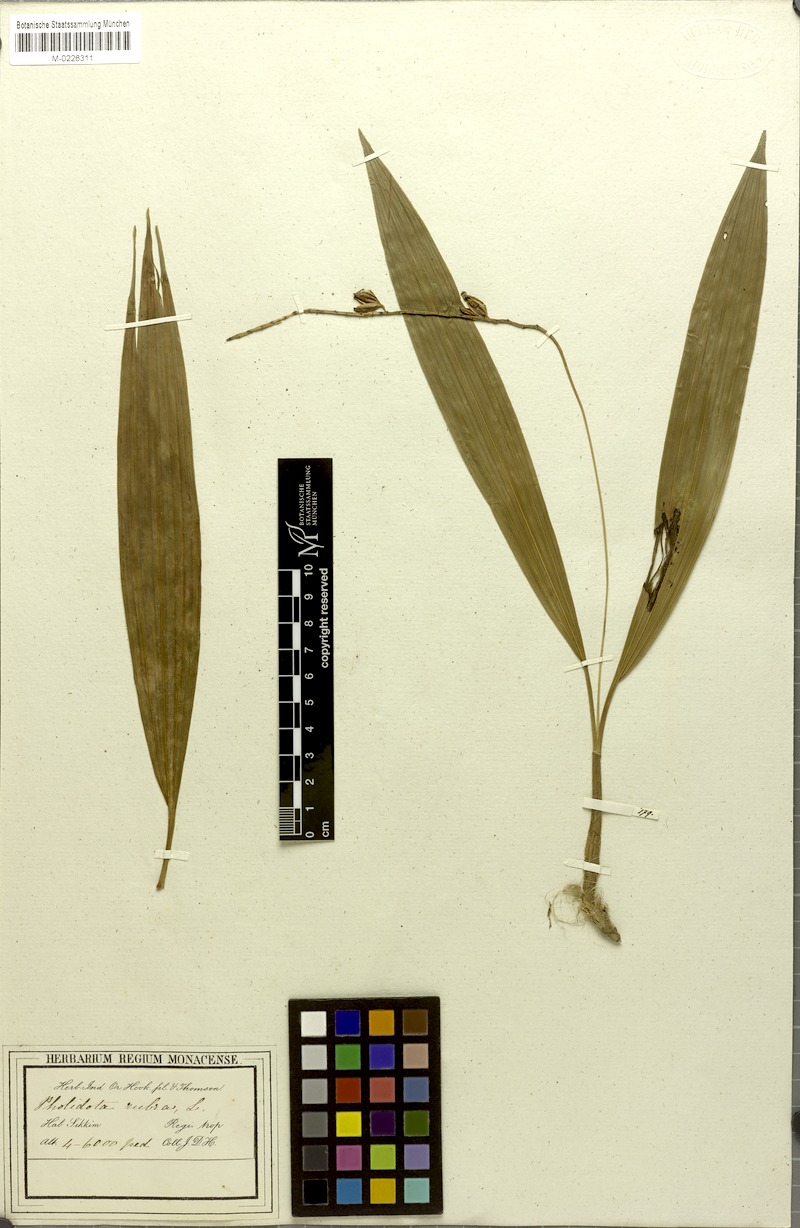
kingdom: Plantae
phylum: Tracheophyta
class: Liliopsida
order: Asparagales
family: Orchidaceae
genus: Coelogyne
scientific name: Coelogyne rubra
